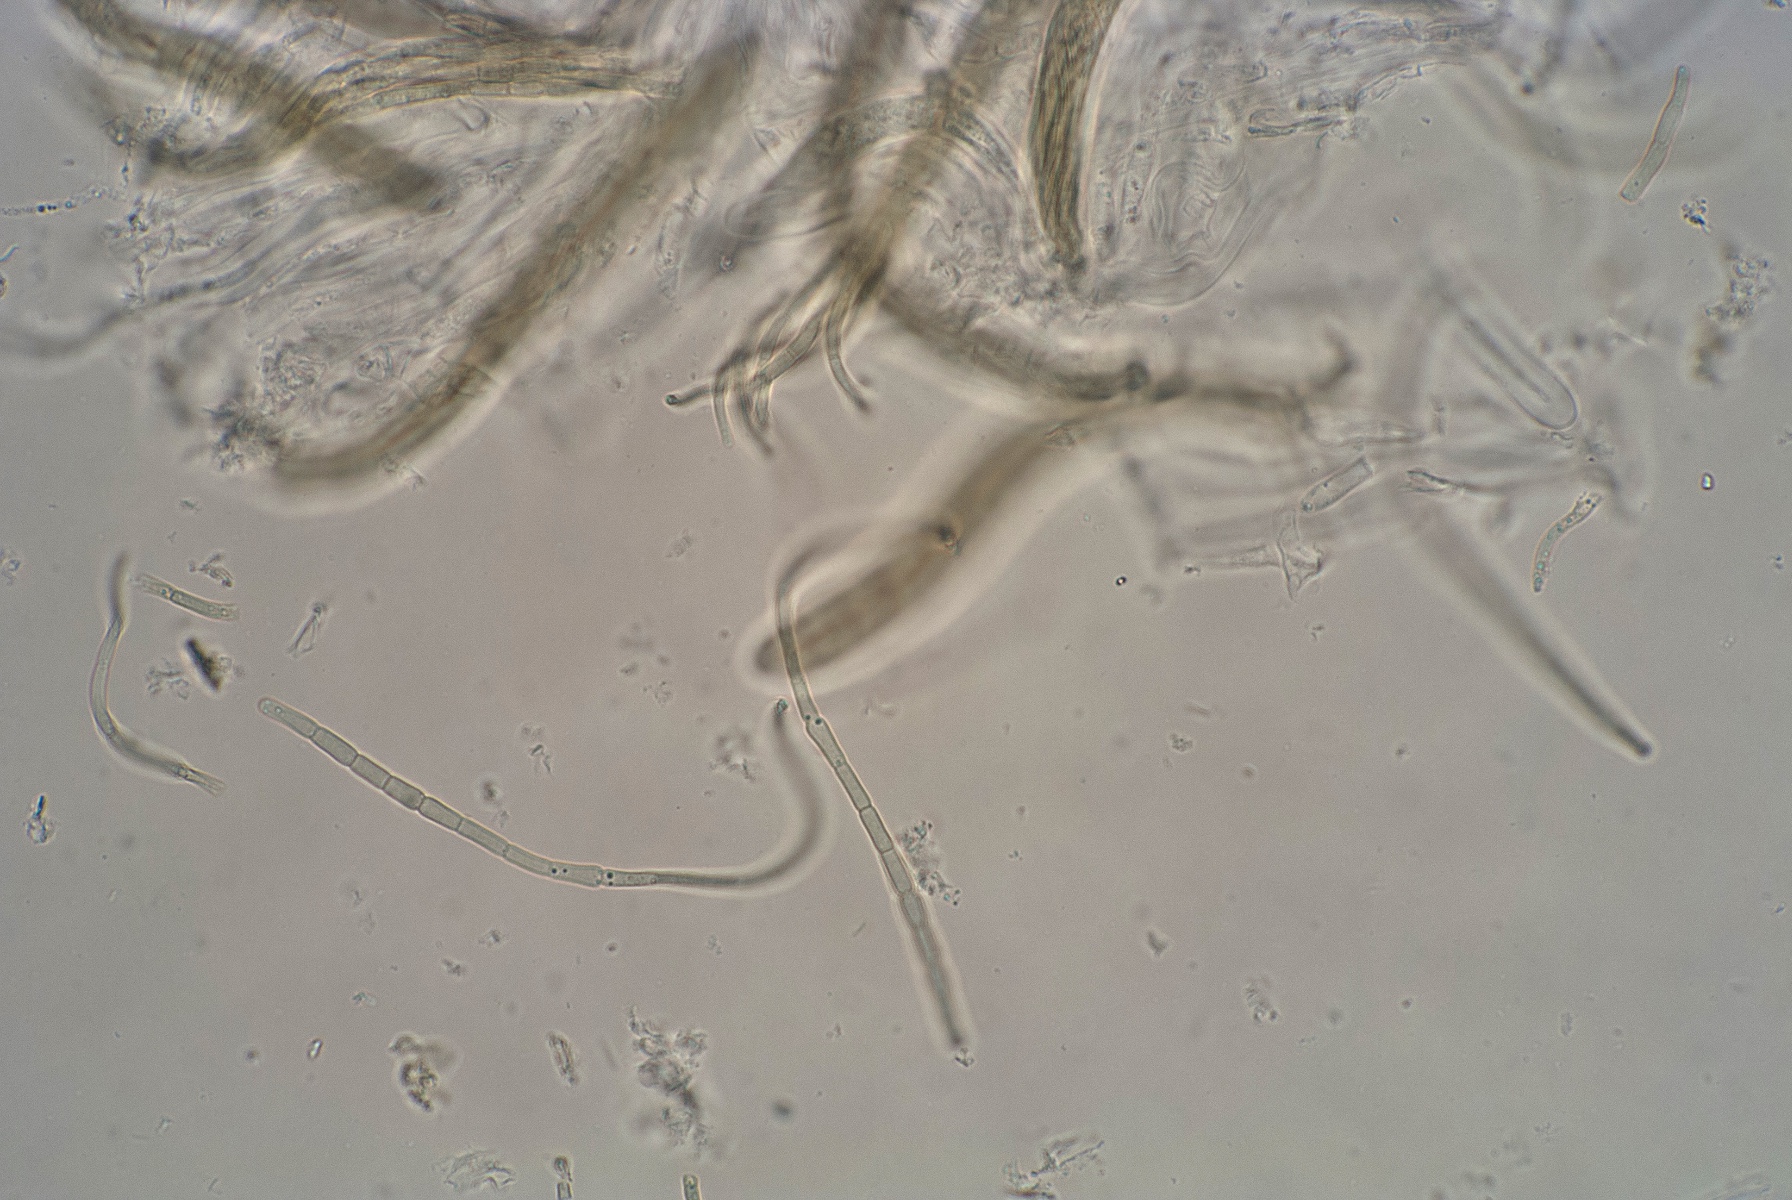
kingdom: Fungi
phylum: Ascomycota
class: Dothideomycetes
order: Pleosporales
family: Phaeosphaeriaceae
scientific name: Phaeosphaeriaceae
